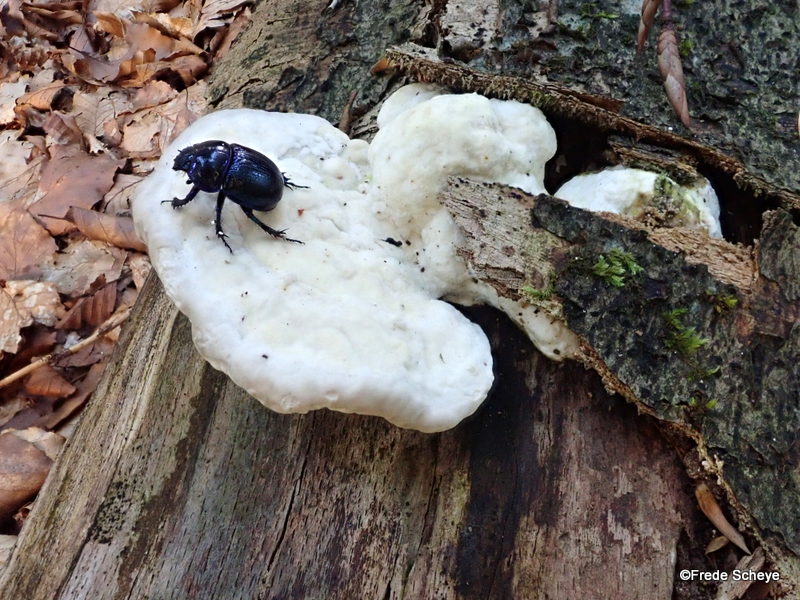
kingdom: Fungi
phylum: Basidiomycota
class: Agaricomycetes
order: Polyporales
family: Polyporaceae
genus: Trametes
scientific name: Trametes gibbosa
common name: puklet læderporesvamp
